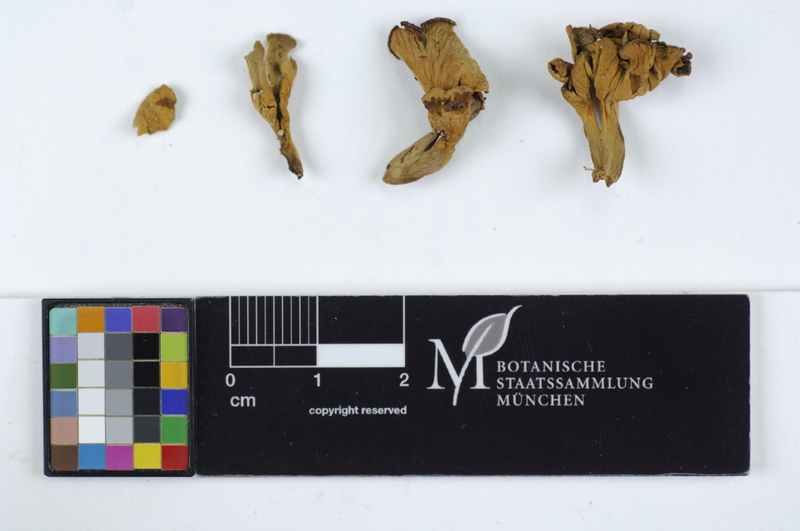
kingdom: Fungi
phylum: Basidiomycota
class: Agaricomycetes
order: Cantharellales
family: Hydnaceae
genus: Craterellus
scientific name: Craterellus undulatus
